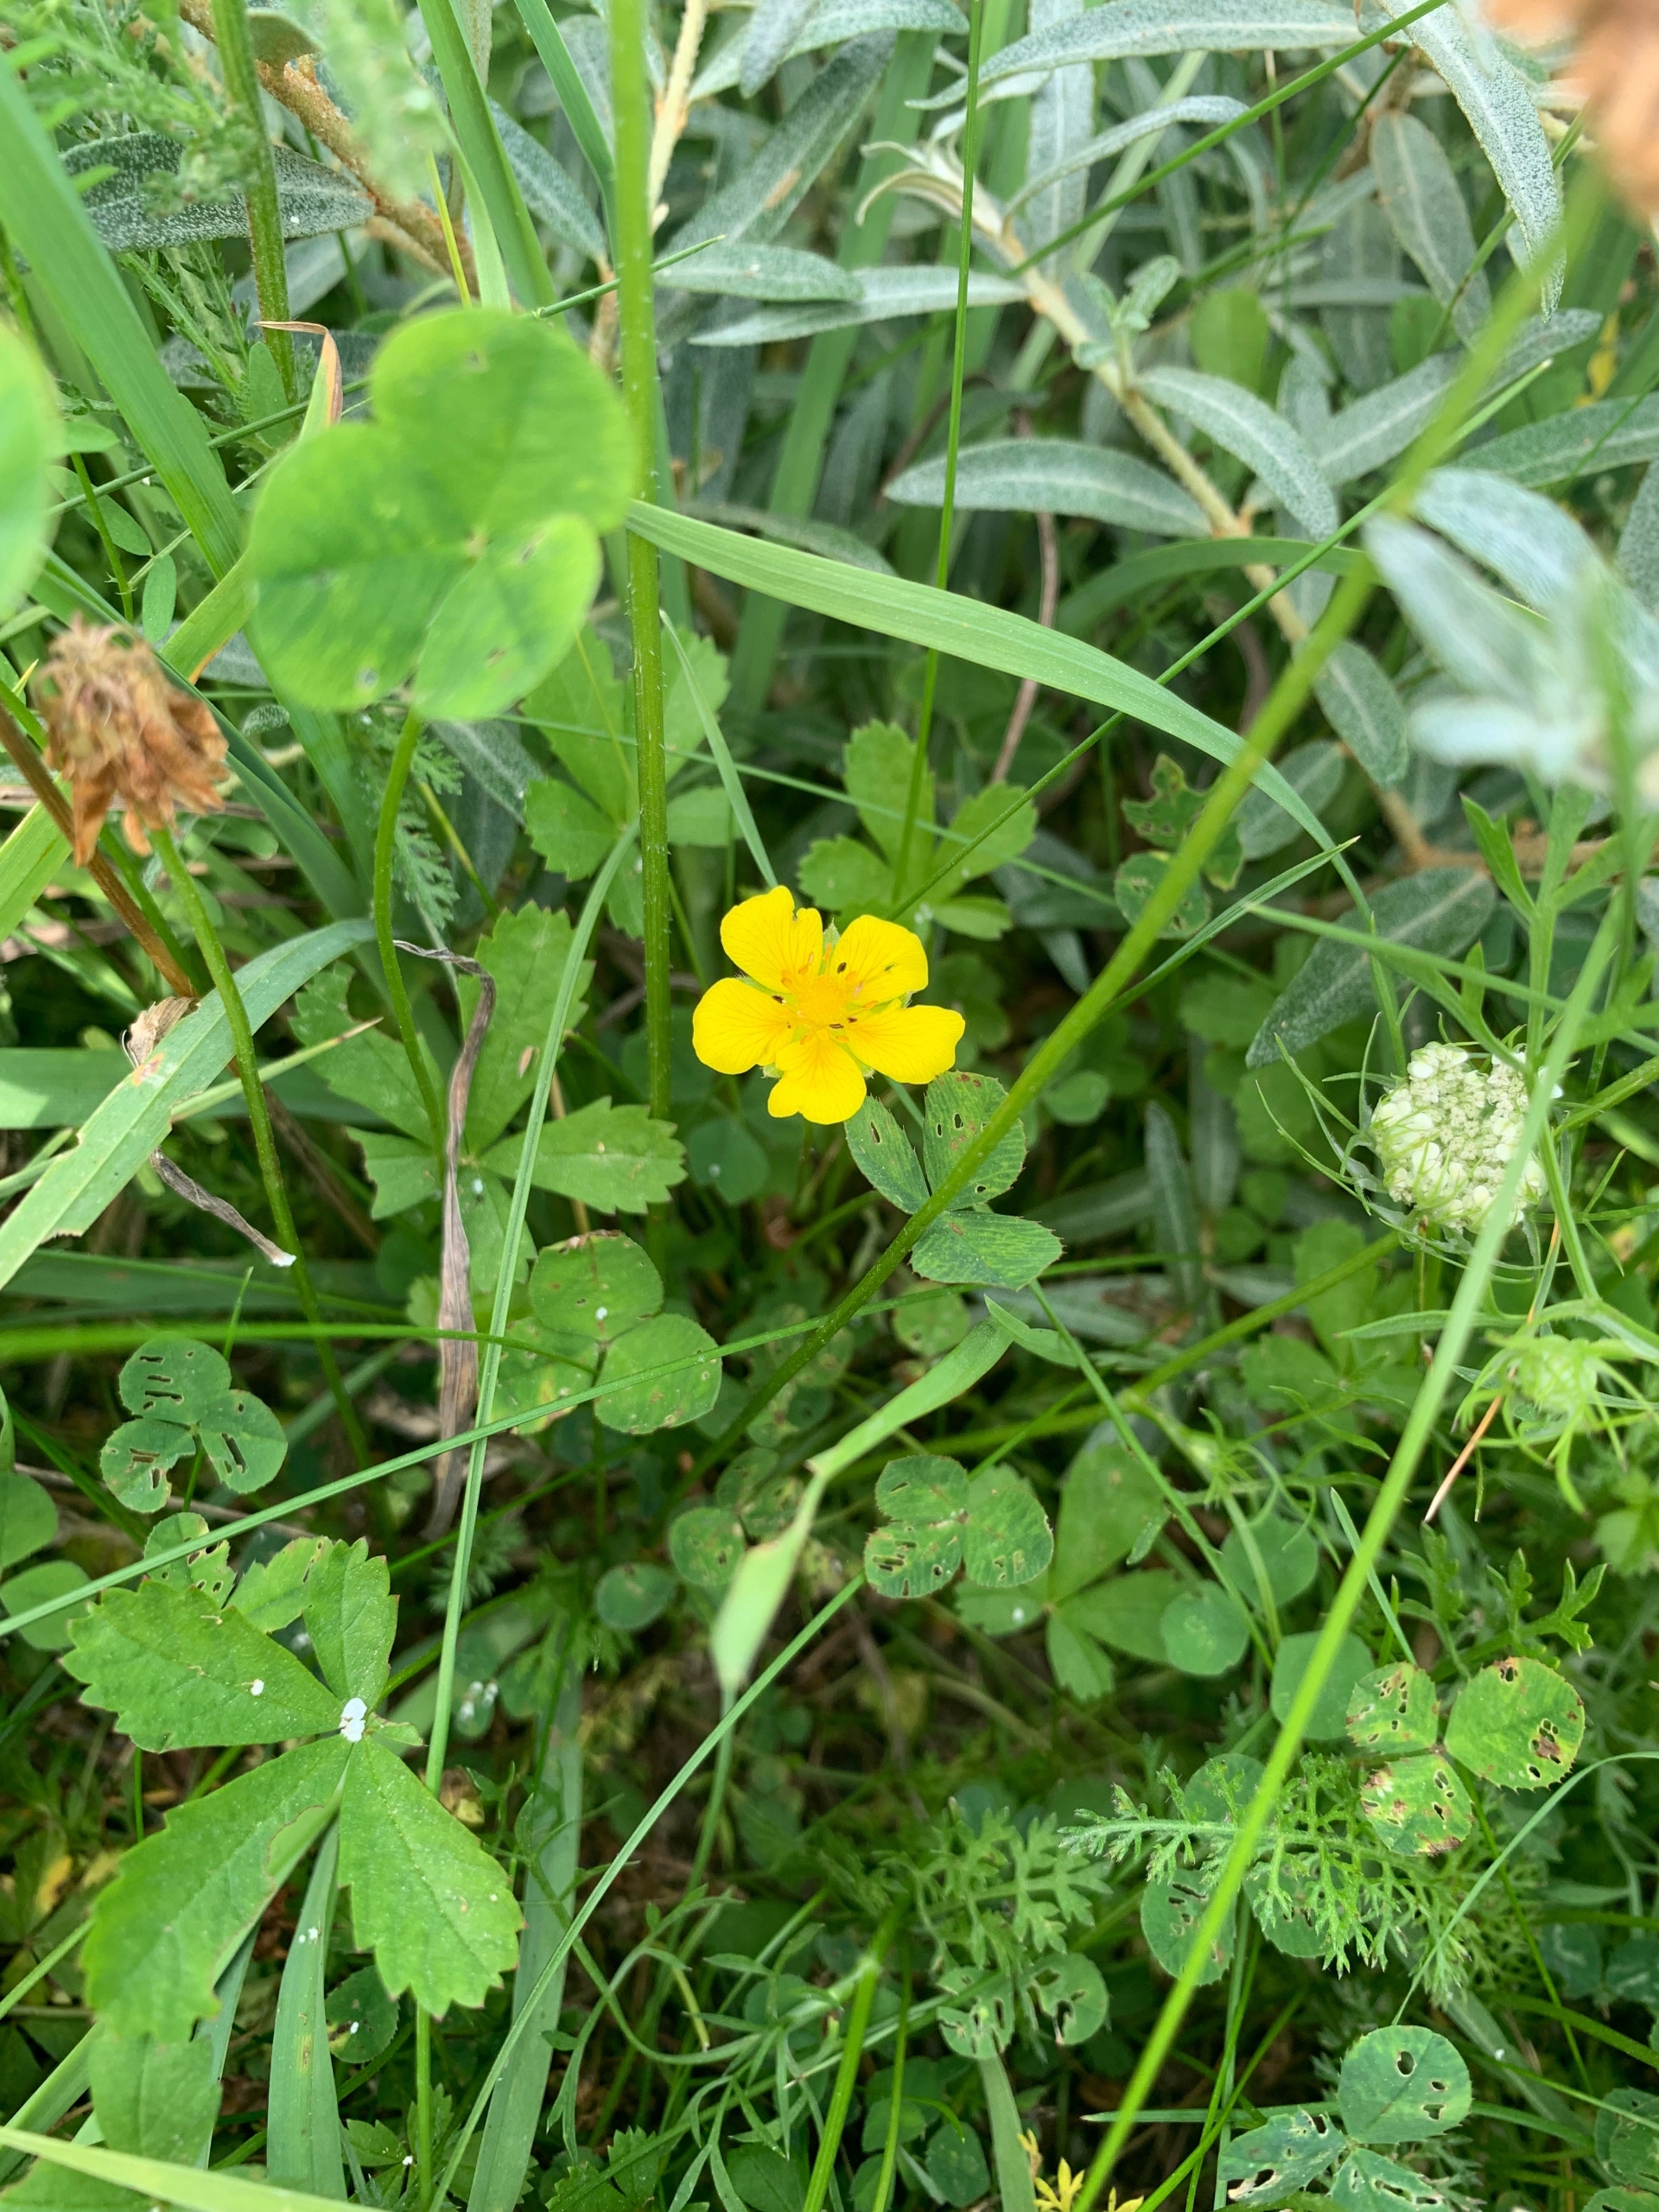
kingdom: Plantae
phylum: Tracheophyta
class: Magnoliopsida
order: Rosales
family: Rosaceae
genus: Potentilla
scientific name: Potentilla reptans
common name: Krybende potentil
